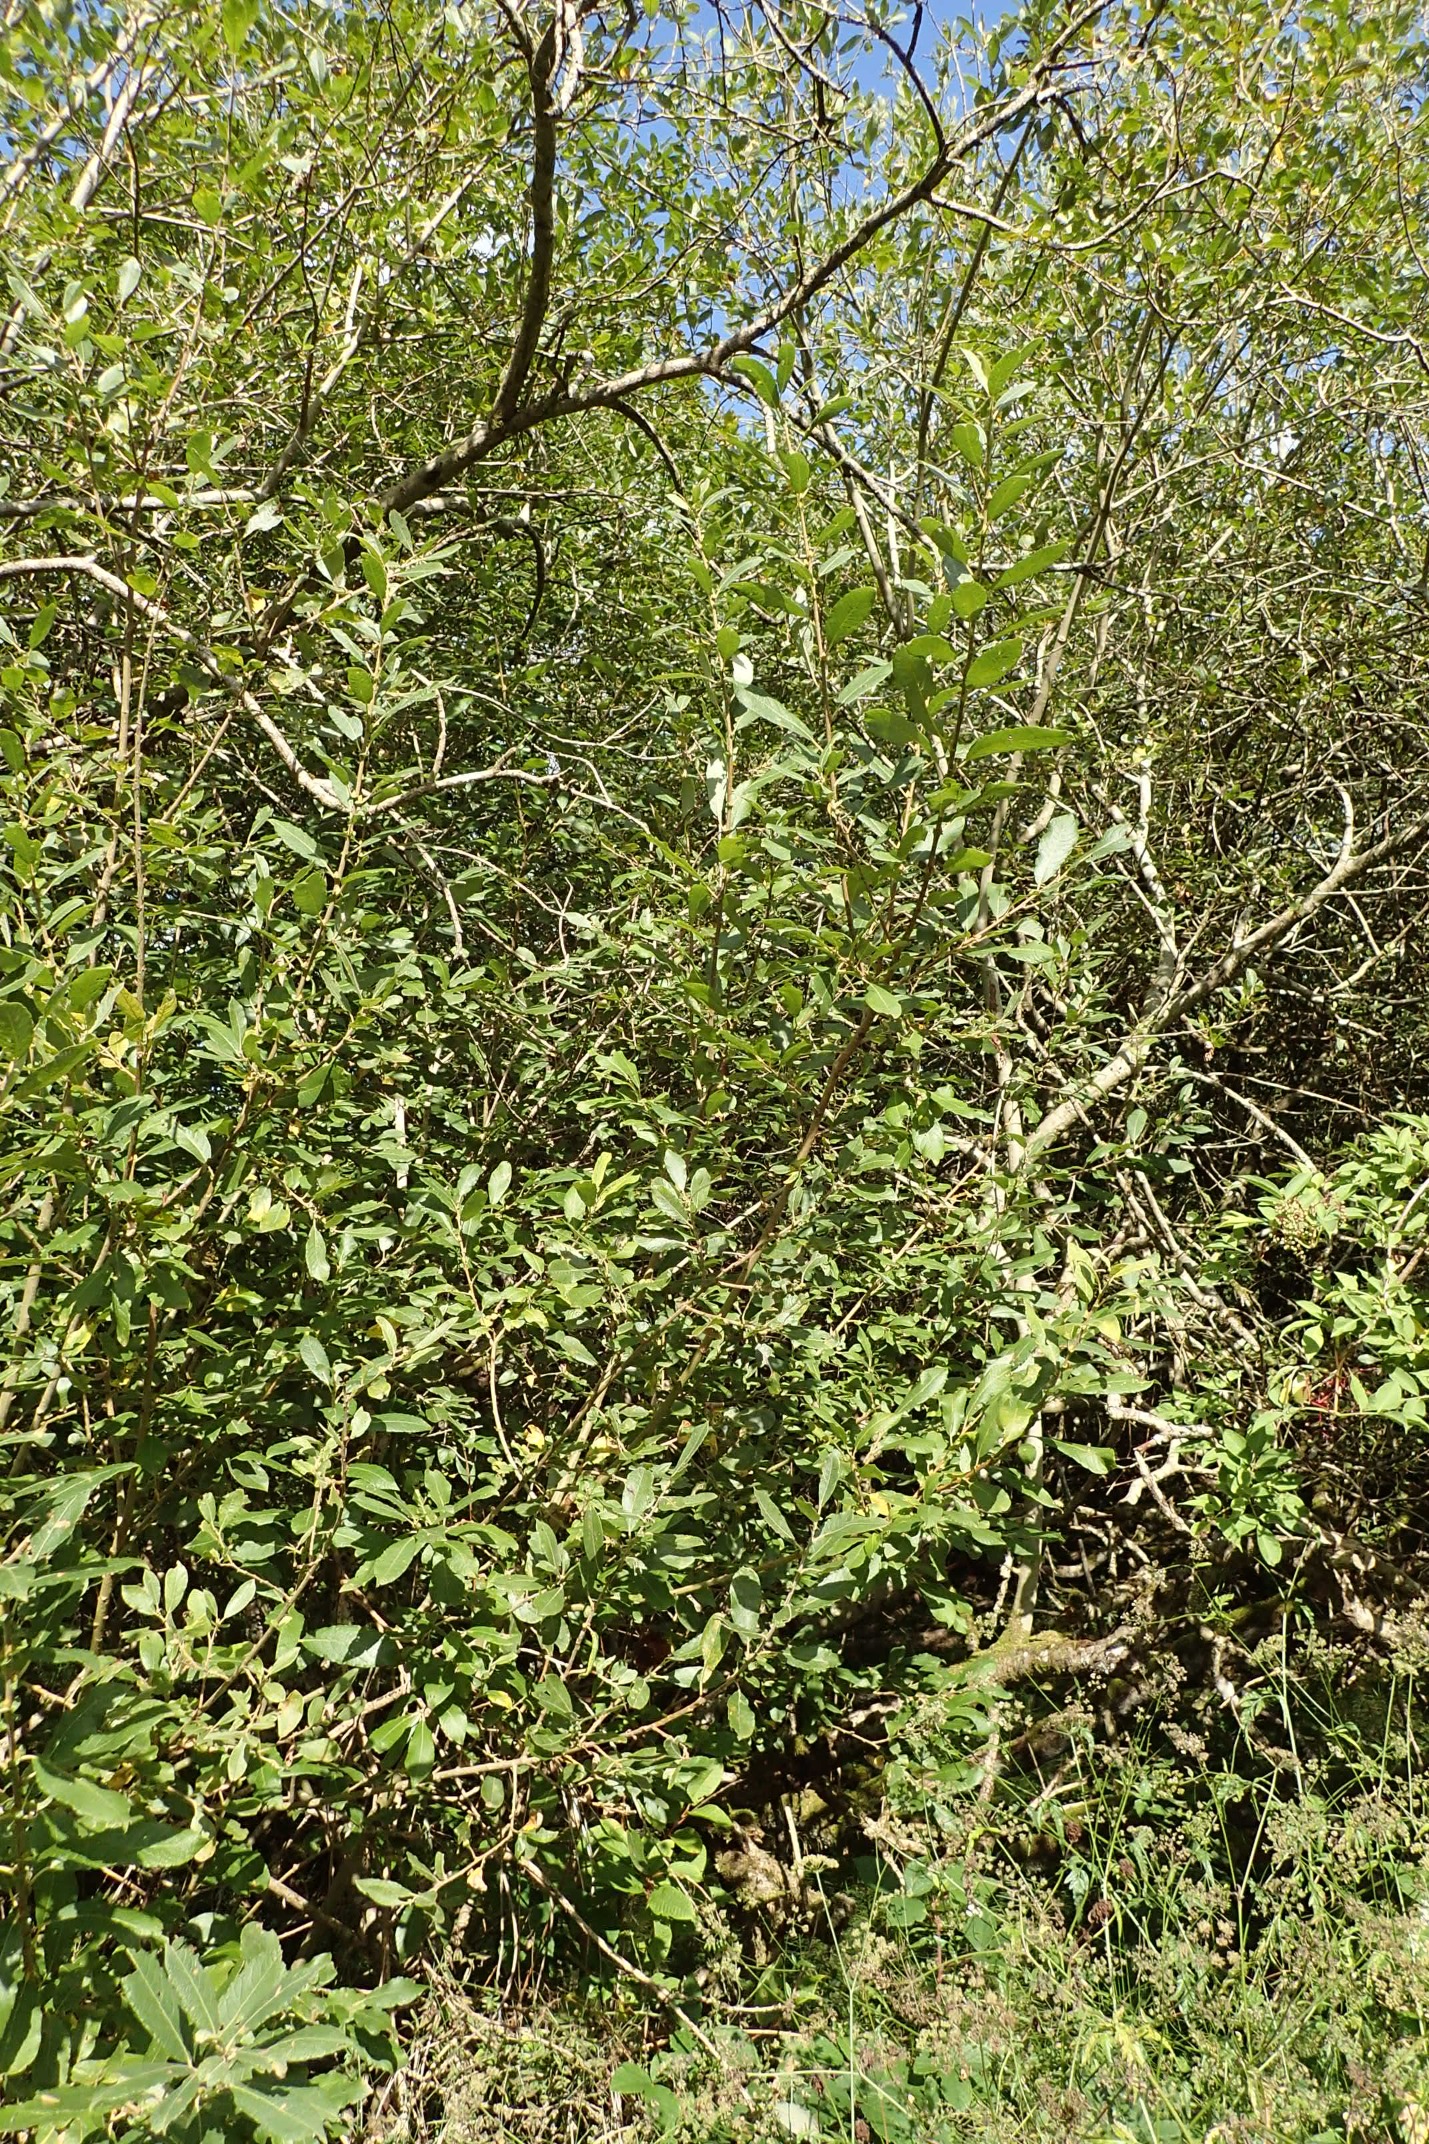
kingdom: Plantae
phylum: Tracheophyta
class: Magnoliopsida
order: Malpighiales
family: Salicaceae
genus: Salix
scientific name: Salix cinerea
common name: Grå-pil
